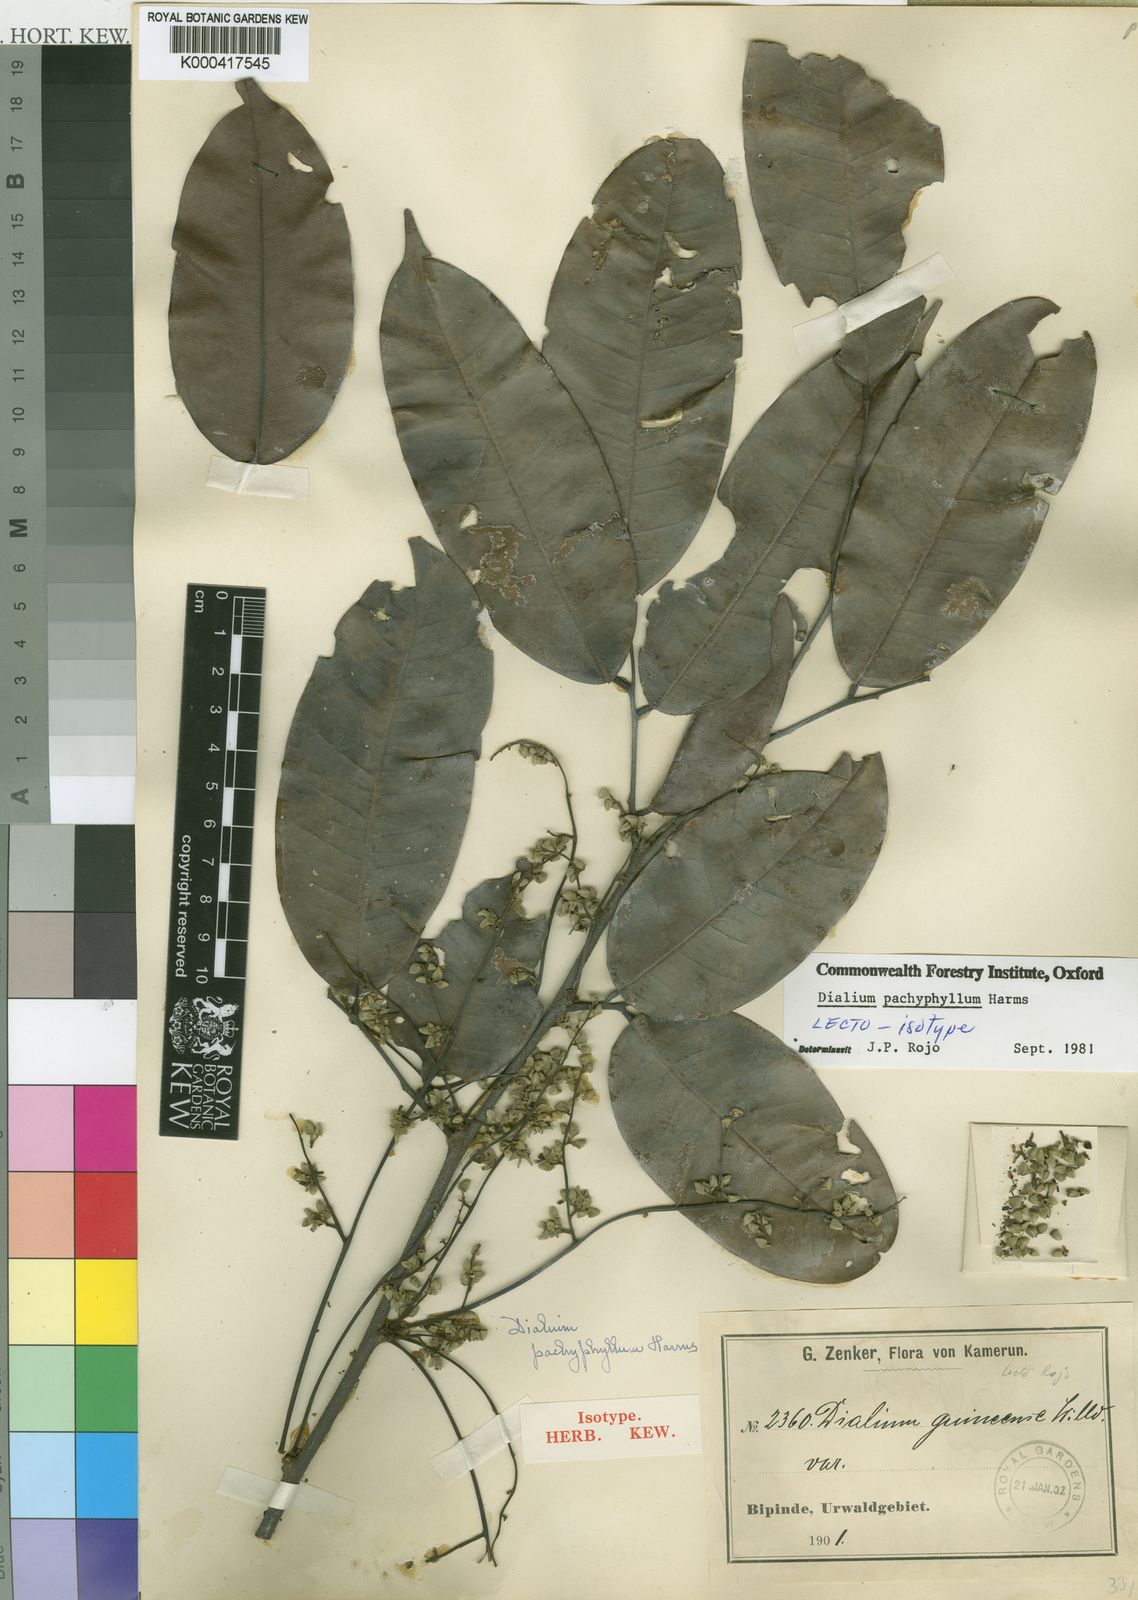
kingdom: Plantae
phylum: Tracheophyta
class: Magnoliopsida
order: Fabales
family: Fabaceae
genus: Dialium
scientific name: Dialium pachyphyllum
